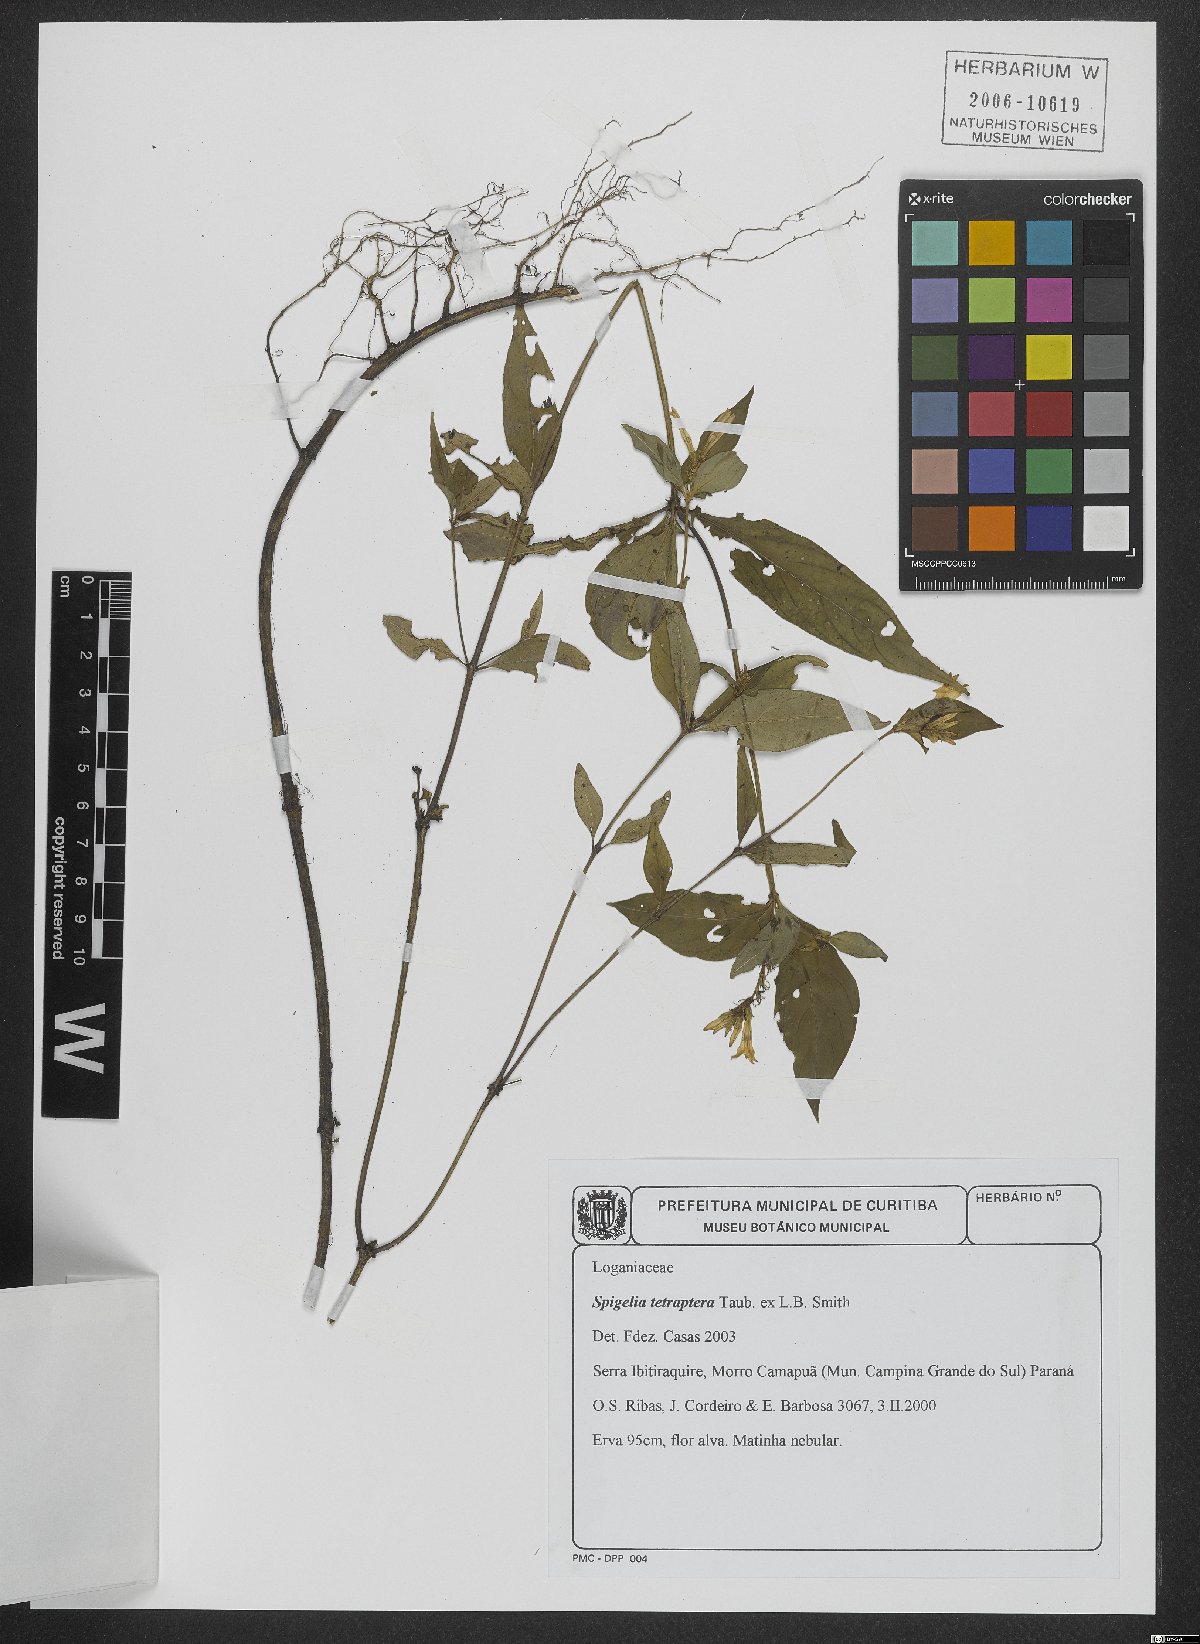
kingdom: Plantae
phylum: Tracheophyta
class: Magnoliopsida
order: Gentianales
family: Loganiaceae
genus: Spigelia
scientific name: Spigelia tetraptera
